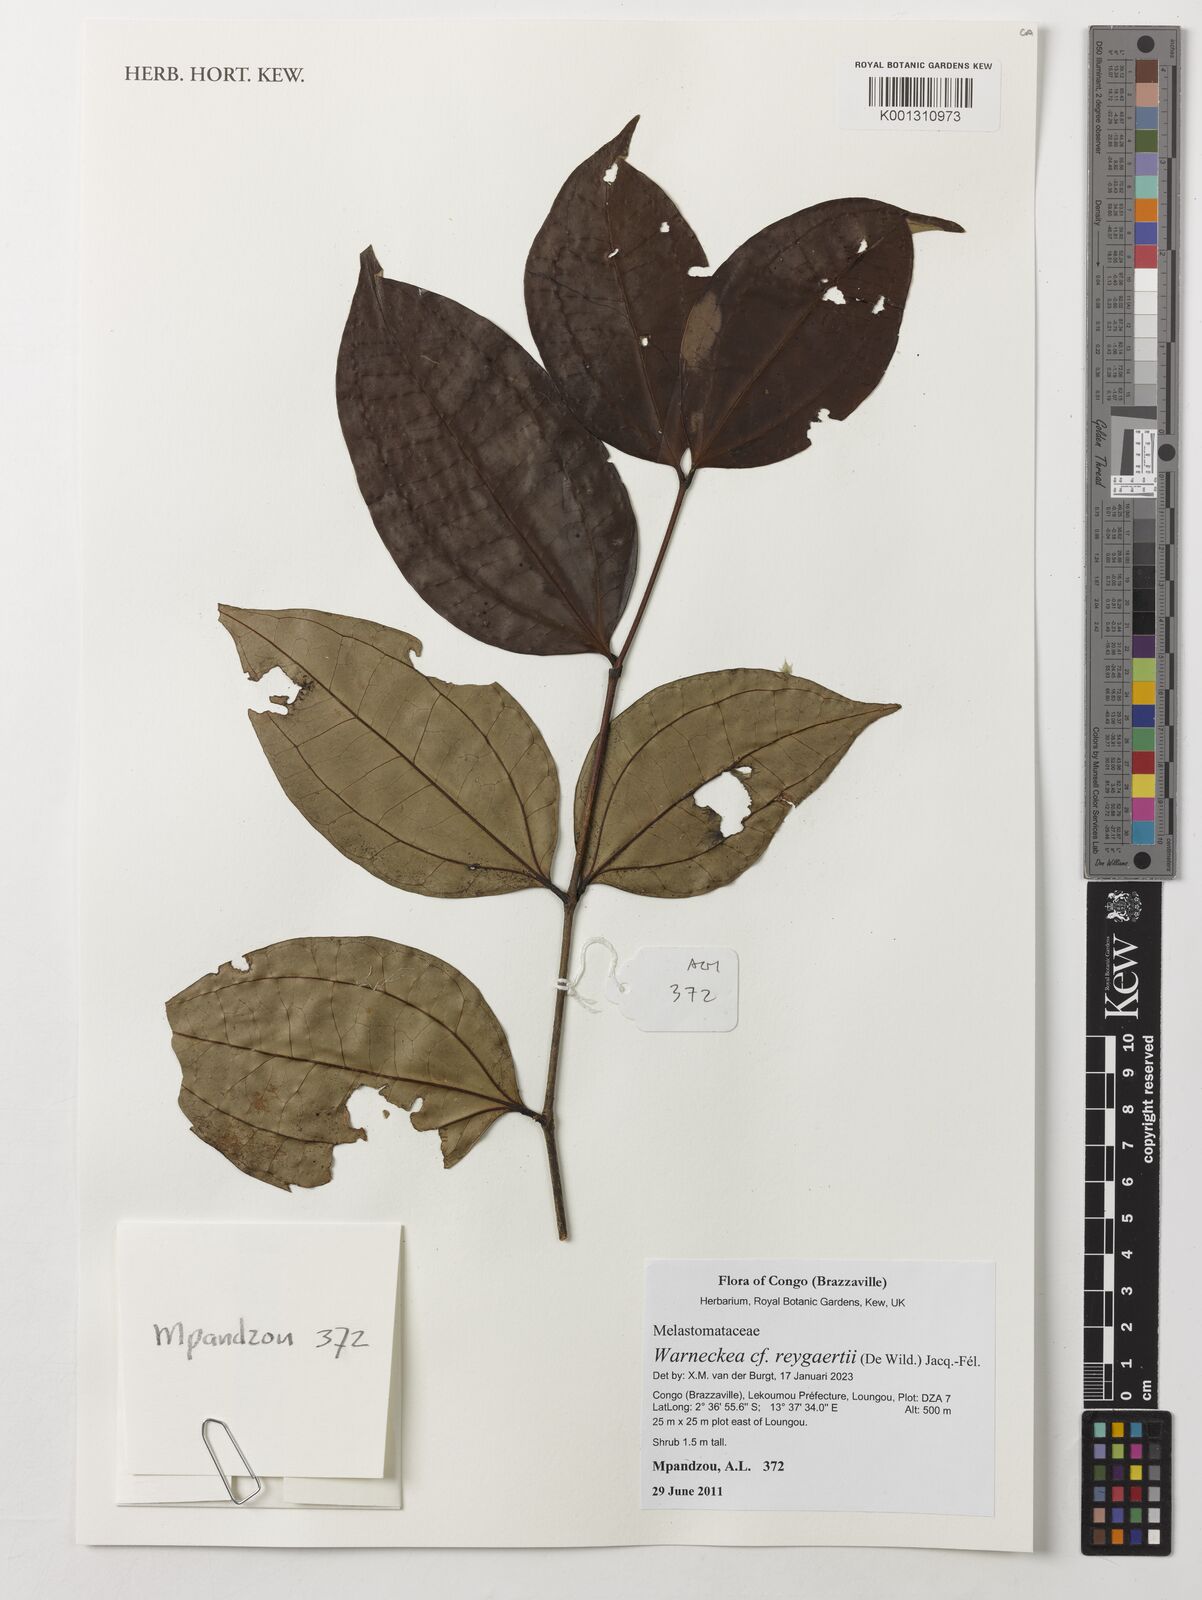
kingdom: Plantae
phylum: Tracheophyta
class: Magnoliopsida
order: Myrtales
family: Melastomataceae
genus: Warneckea
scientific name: Warneckea reygaertii
